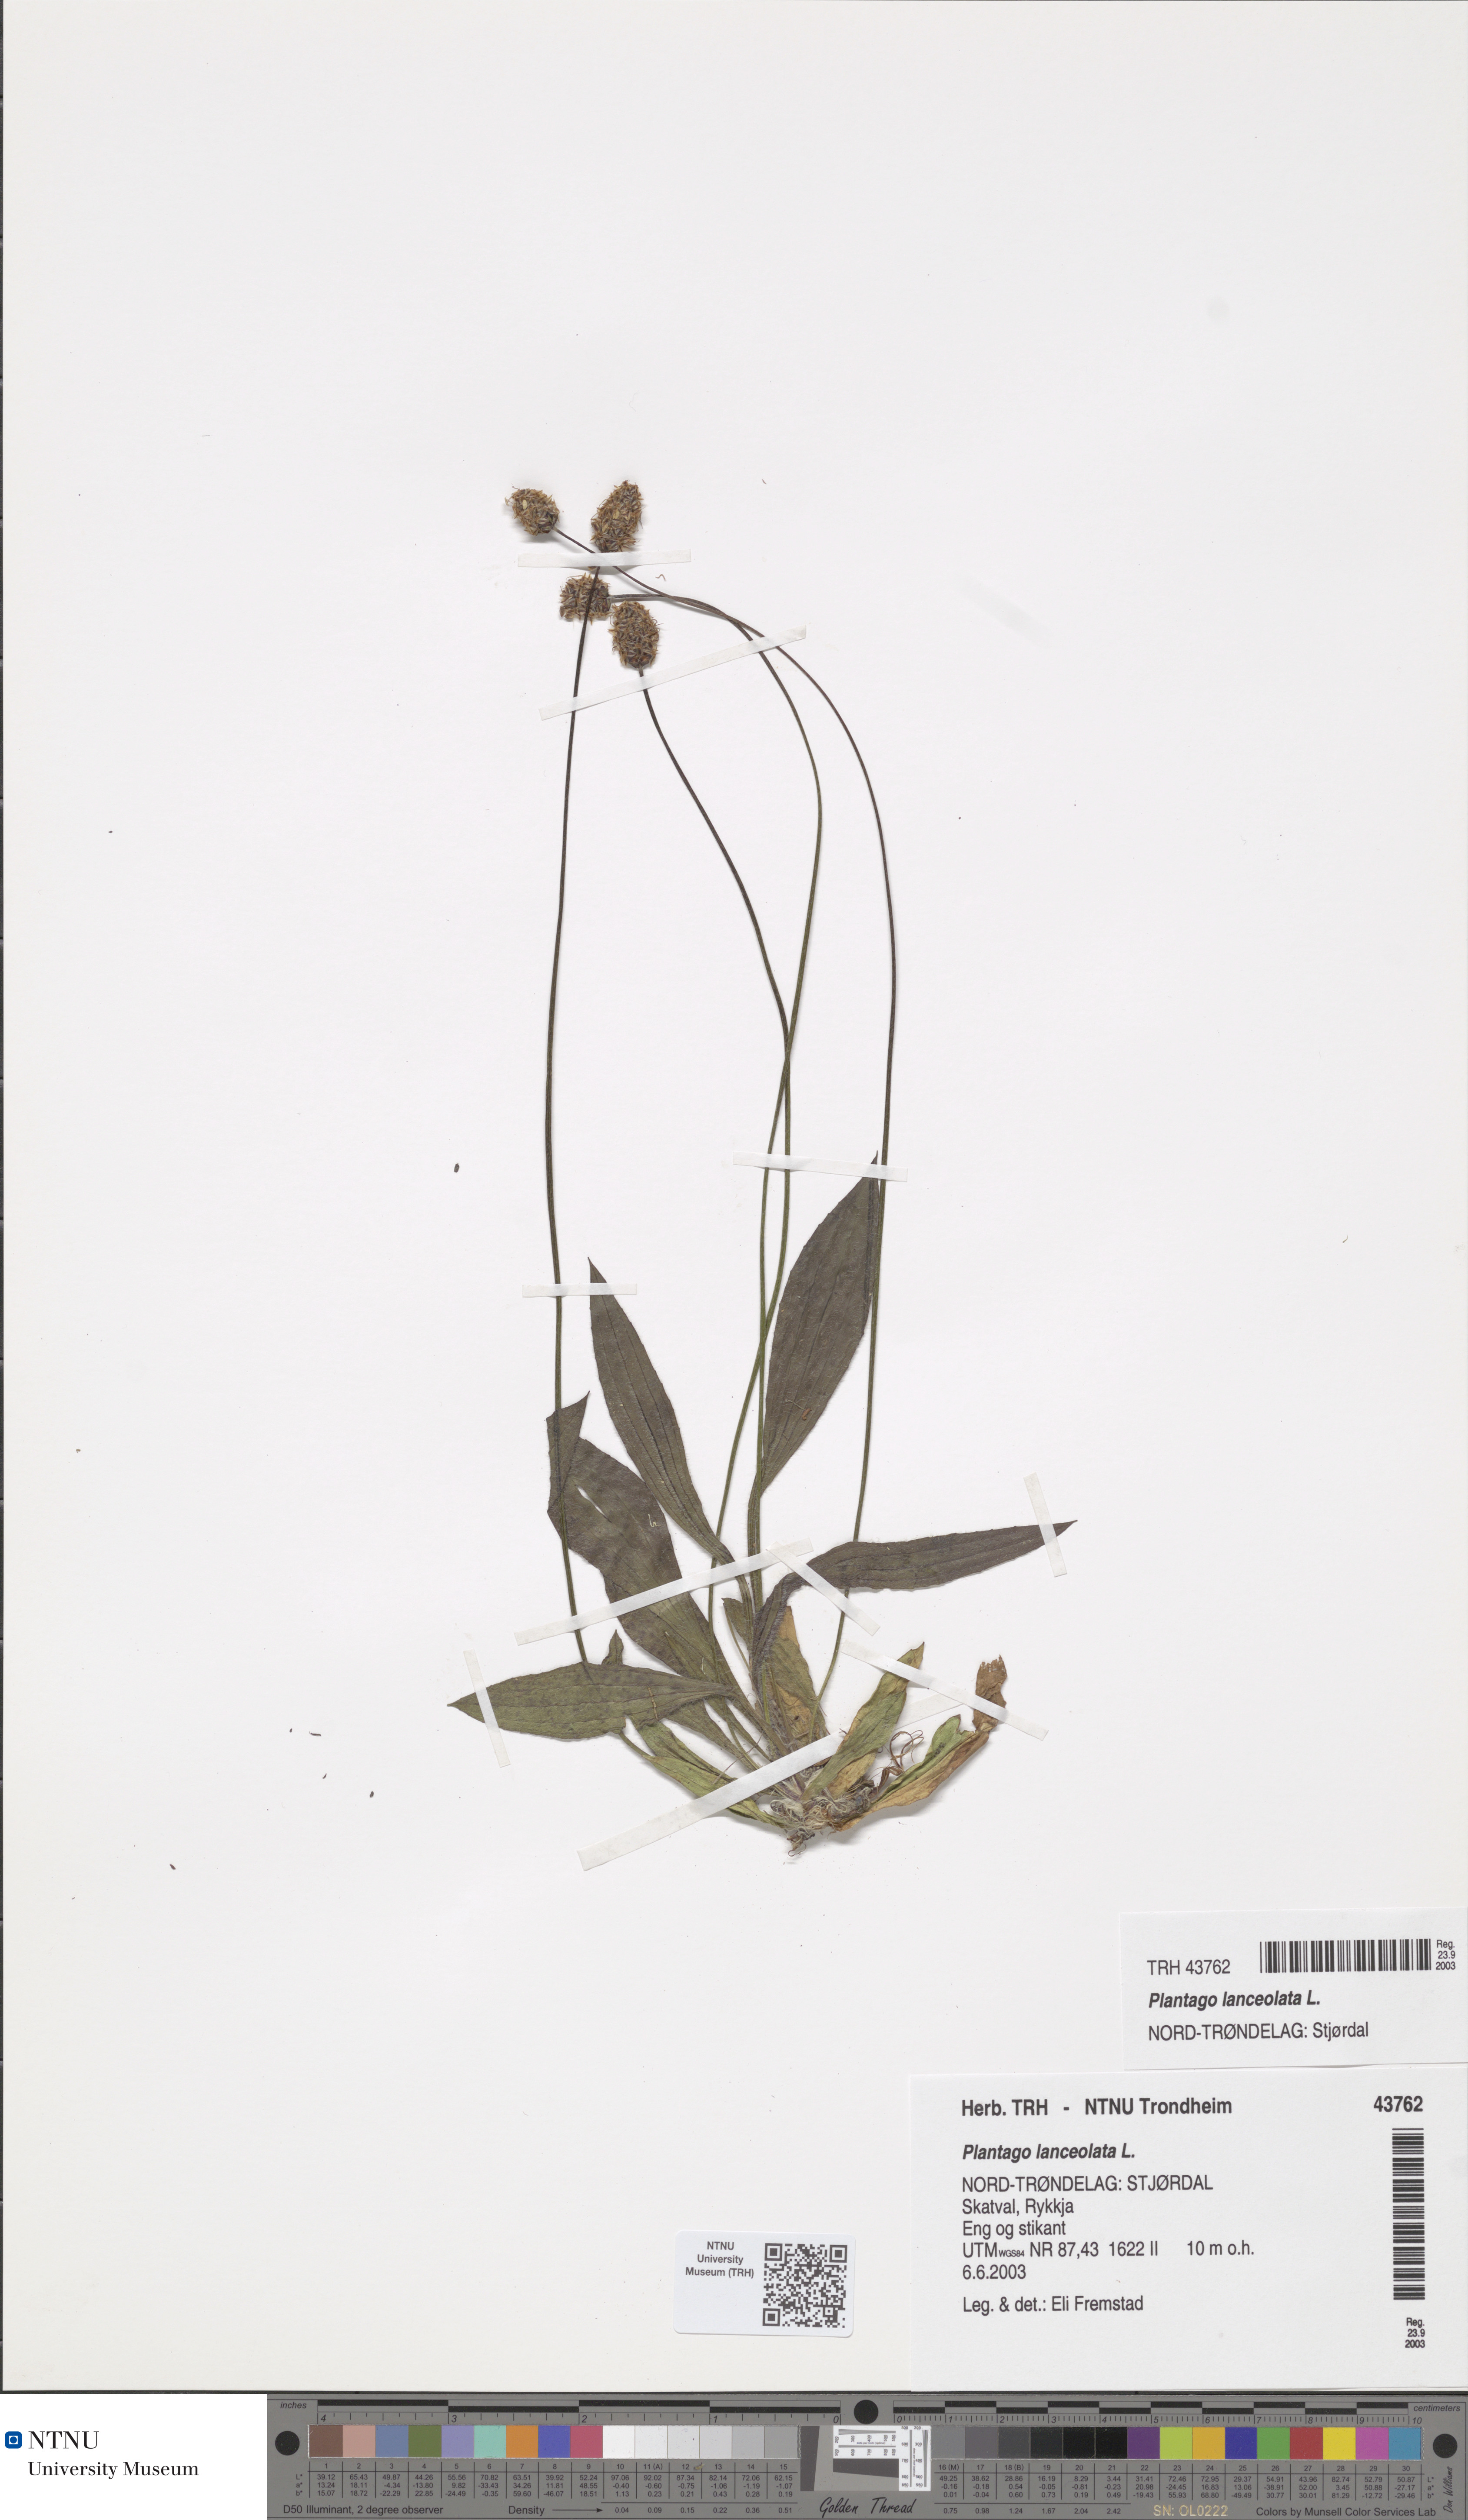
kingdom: Plantae
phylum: Tracheophyta
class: Magnoliopsida
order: Lamiales
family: Plantaginaceae
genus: Plantago
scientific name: Plantago lanceolata
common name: Ribwort plantain
